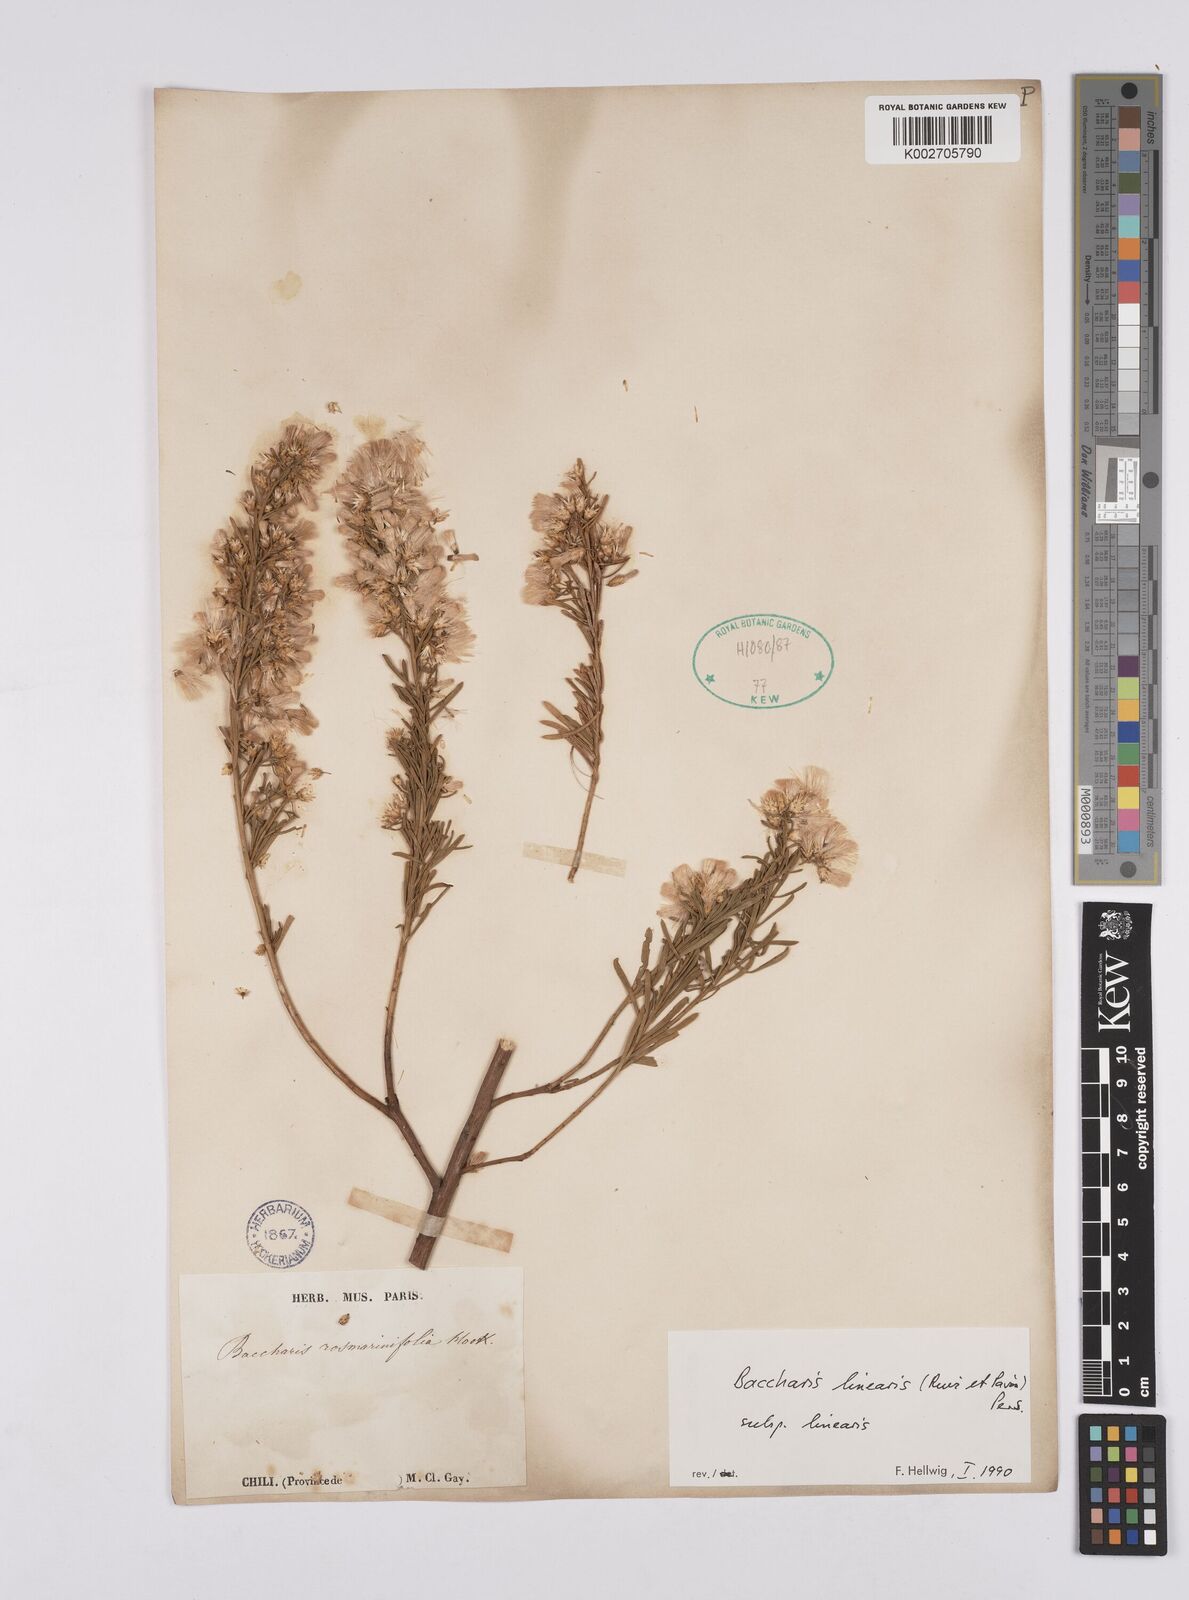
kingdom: Plantae
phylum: Tracheophyta
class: Magnoliopsida
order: Asterales
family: Asteraceae
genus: Baccharis
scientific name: Baccharis linearis
